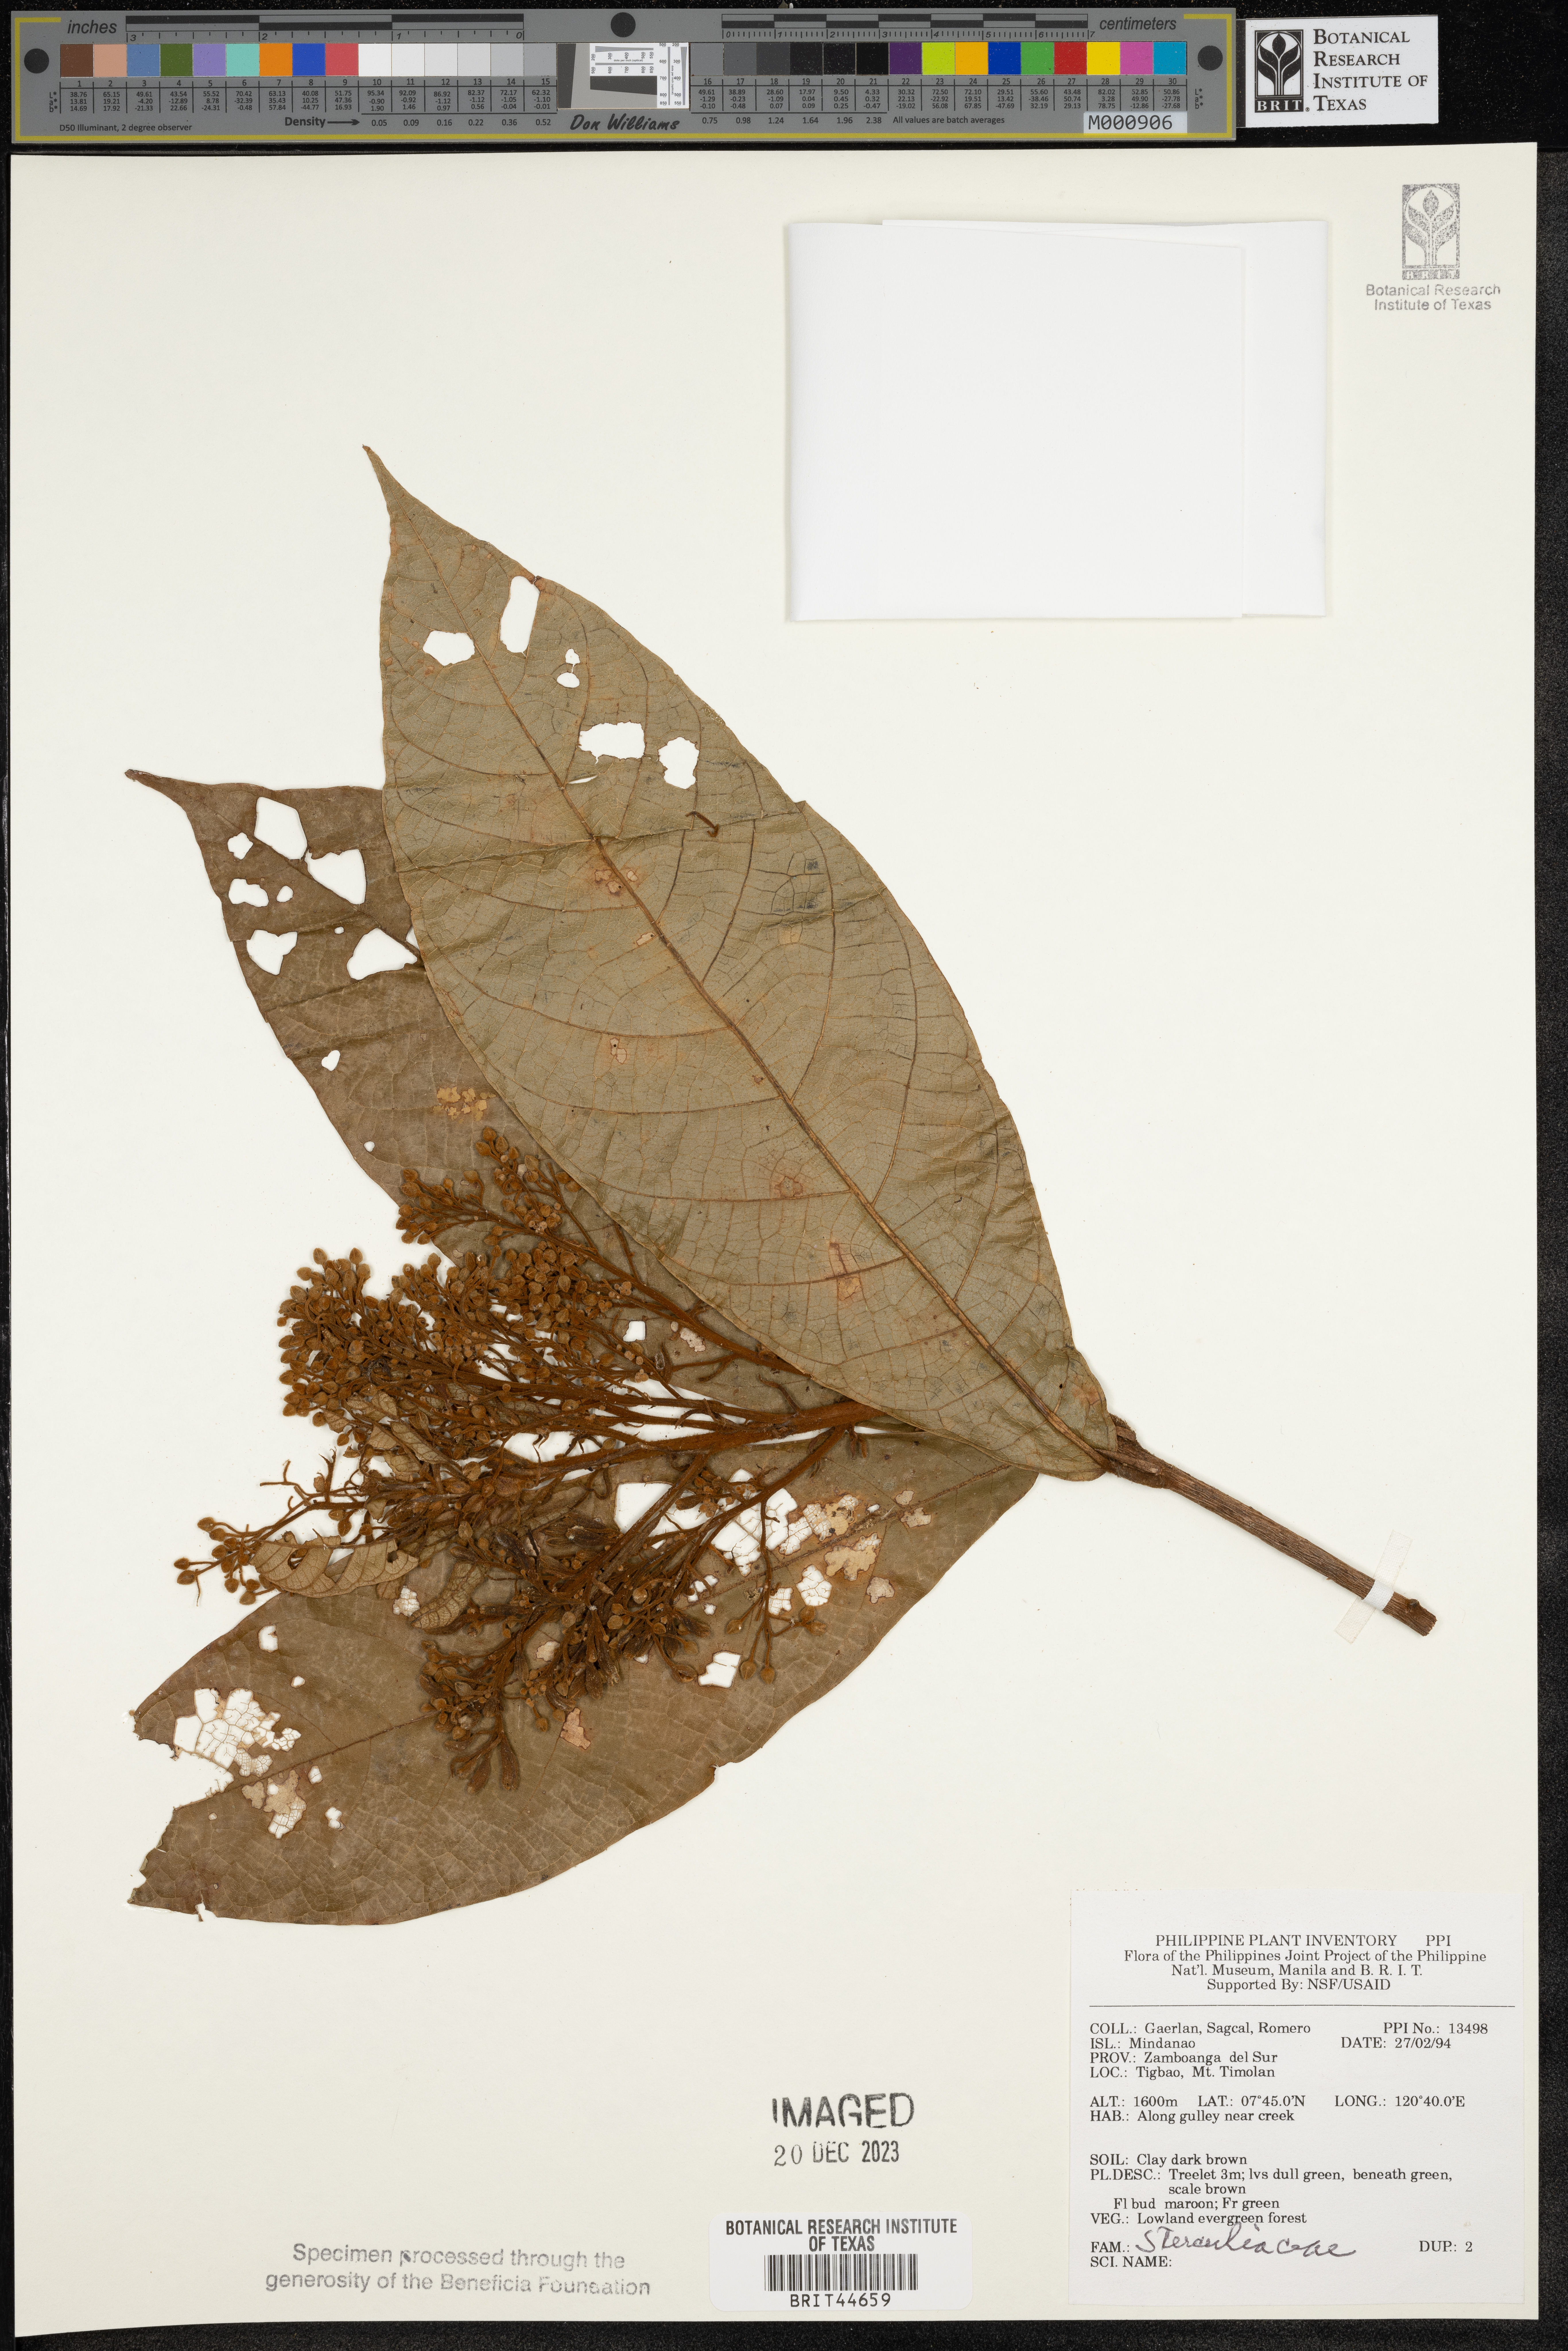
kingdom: Plantae
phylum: Tracheophyta
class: Magnoliopsida
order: Malvales
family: Sterculiaceae
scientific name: Sterculiaceae
